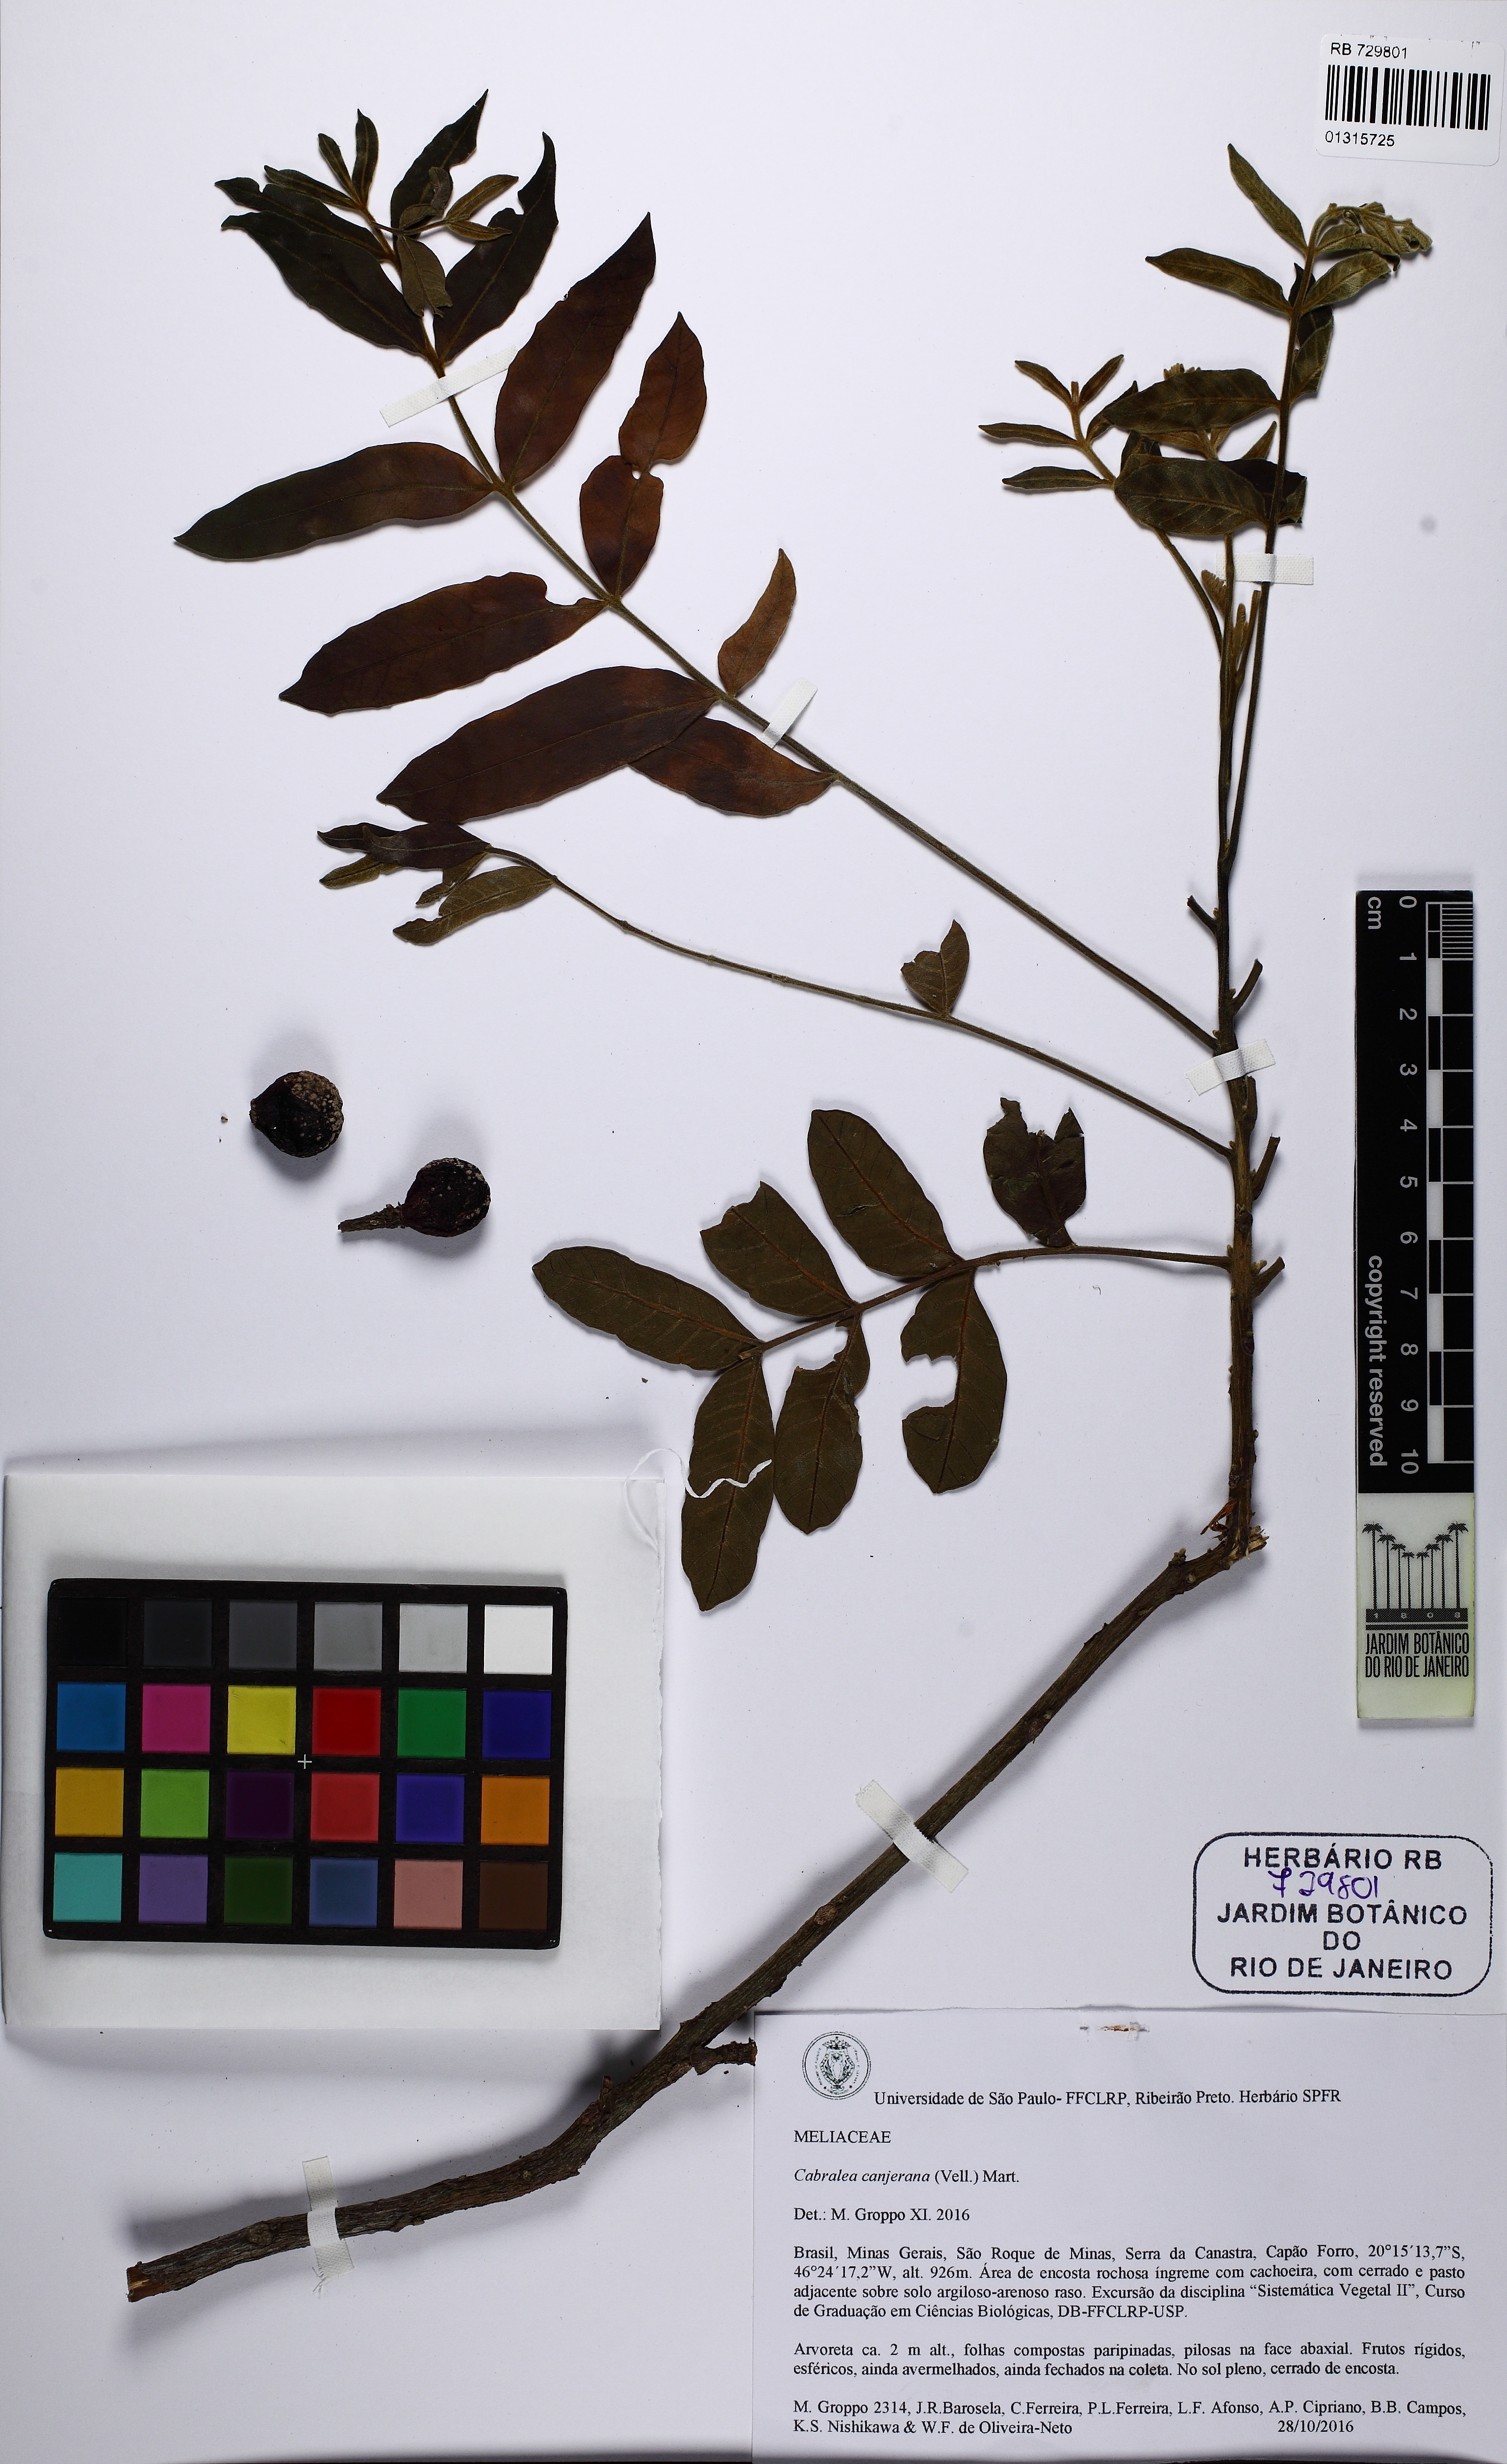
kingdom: Plantae
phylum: Tracheophyta
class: Magnoliopsida
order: Sapindales
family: Meliaceae
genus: Cabralea
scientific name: Cabralea canjerana
